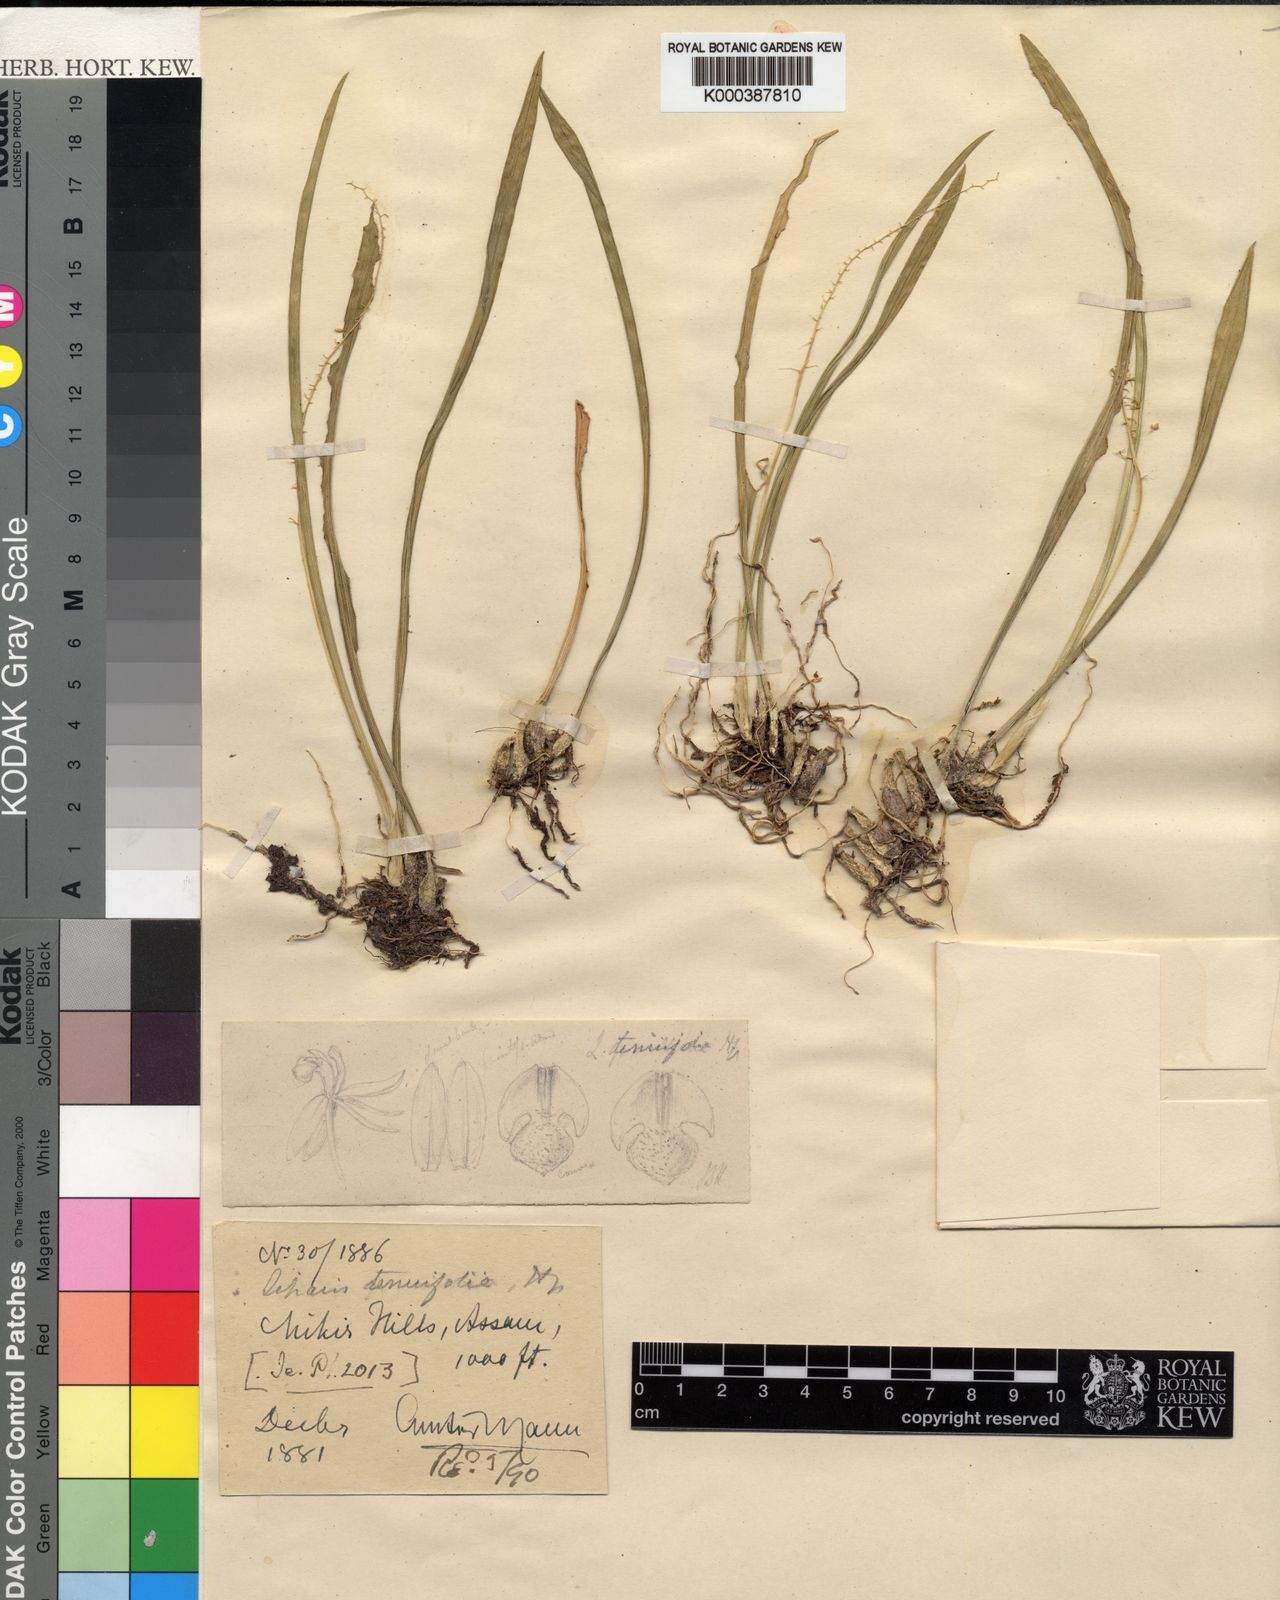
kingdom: Plantae
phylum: Tracheophyta
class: Liliopsida
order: Asparagales
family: Orchidaceae
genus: Liparis
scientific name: Liparis mannii
